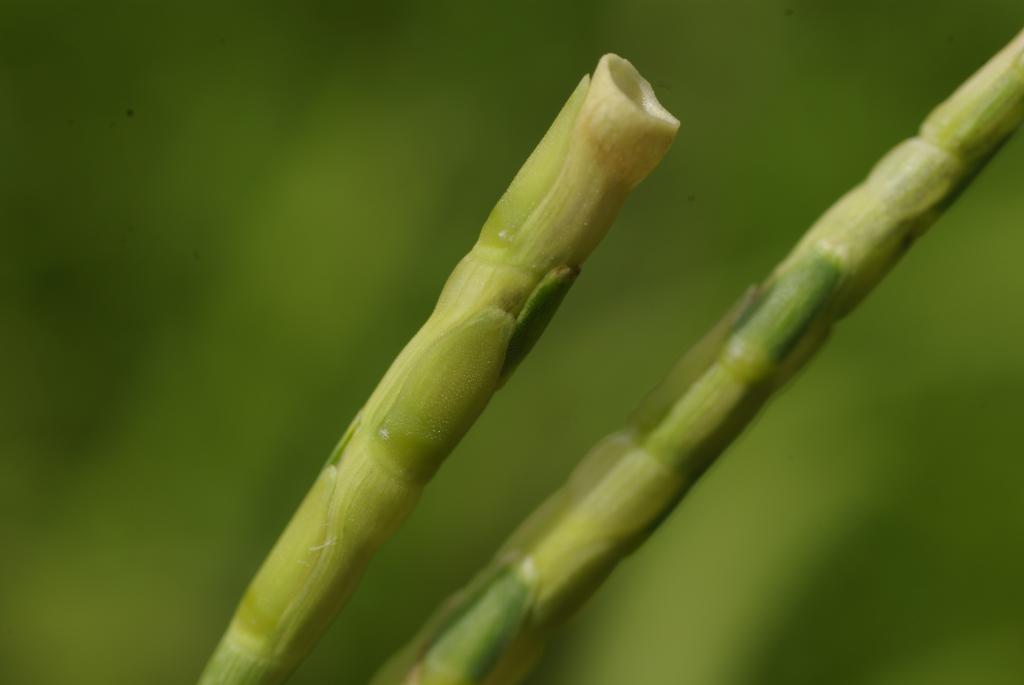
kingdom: Plantae
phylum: Tracheophyta
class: Liliopsida
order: Poales
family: Poaceae
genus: Rottboellia
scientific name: Rottboellia cochinchinensis
